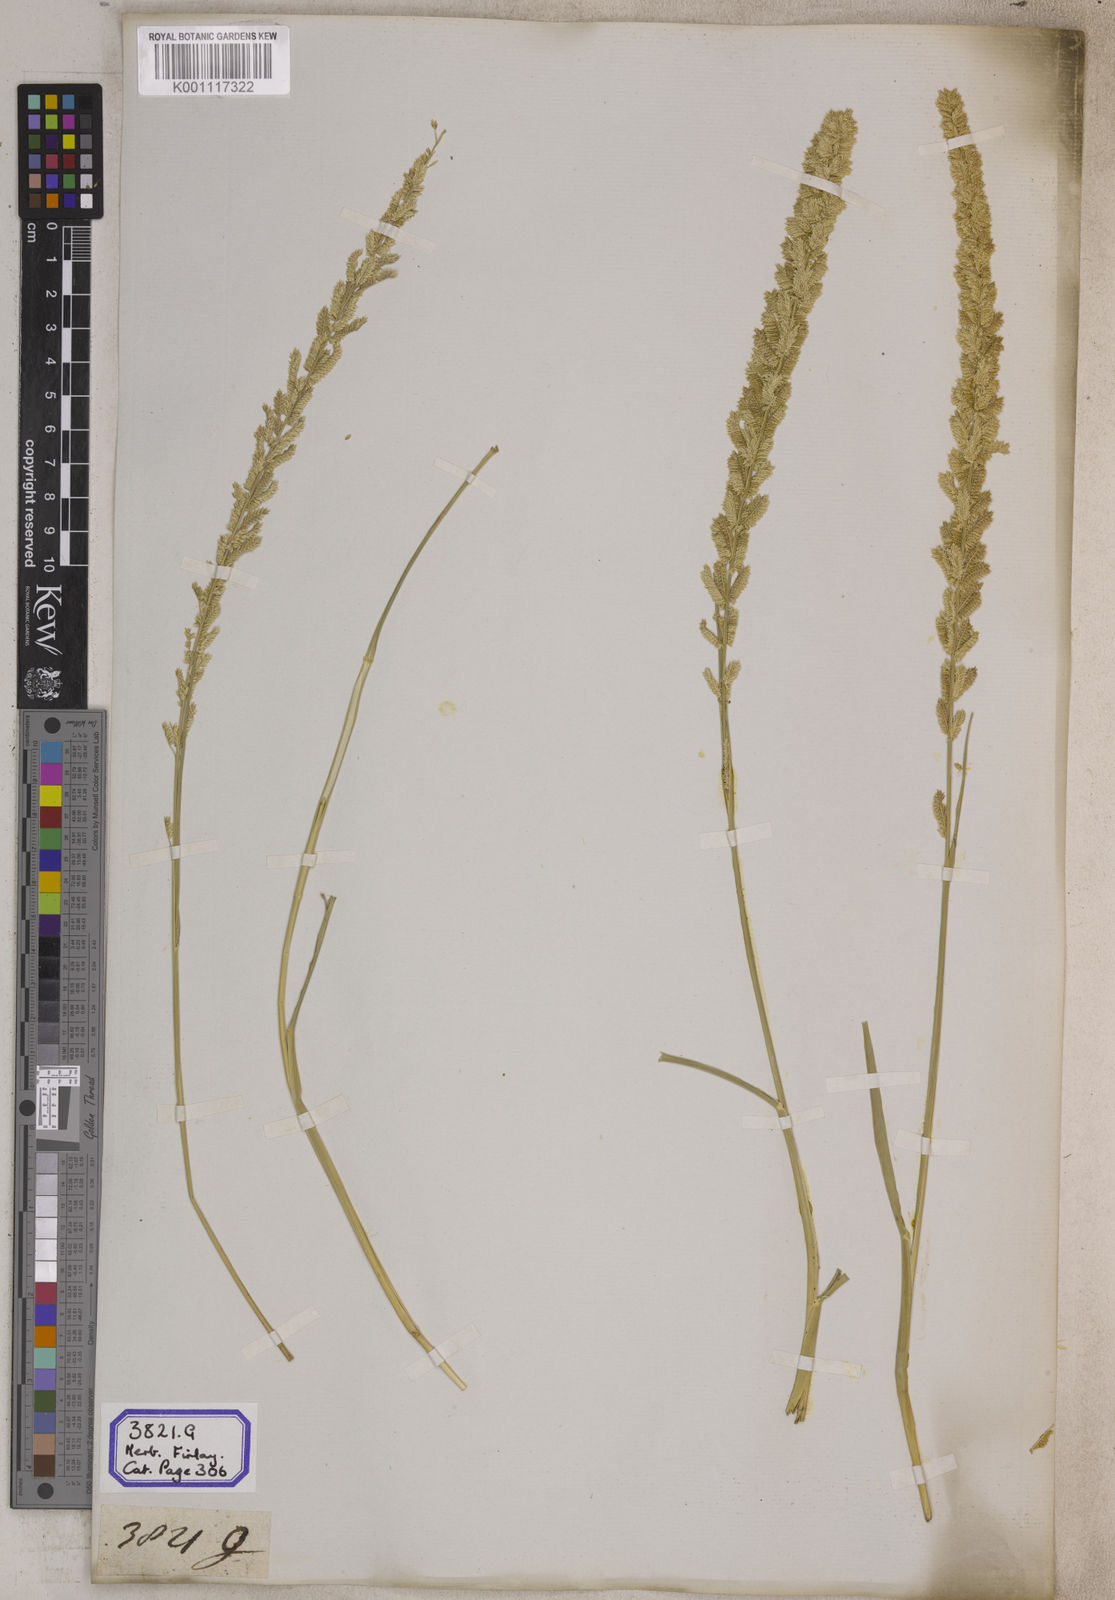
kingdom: Plantae
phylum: Tracheophyta
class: Liliopsida
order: Poales
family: Poaceae
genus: Eragrostis
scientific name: Eragrostis
